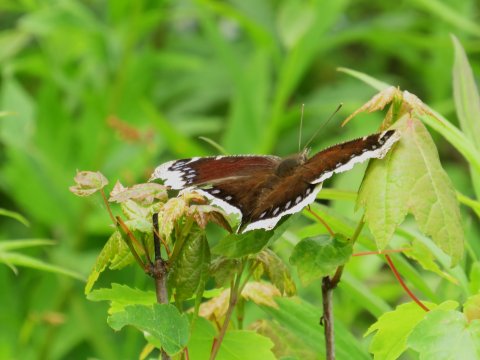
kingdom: Animalia
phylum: Arthropoda
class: Insecta
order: Lepidoptera
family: Nymphalidae
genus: Nymphalis
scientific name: Nymphalis antiopa
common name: Mourning Cloak
